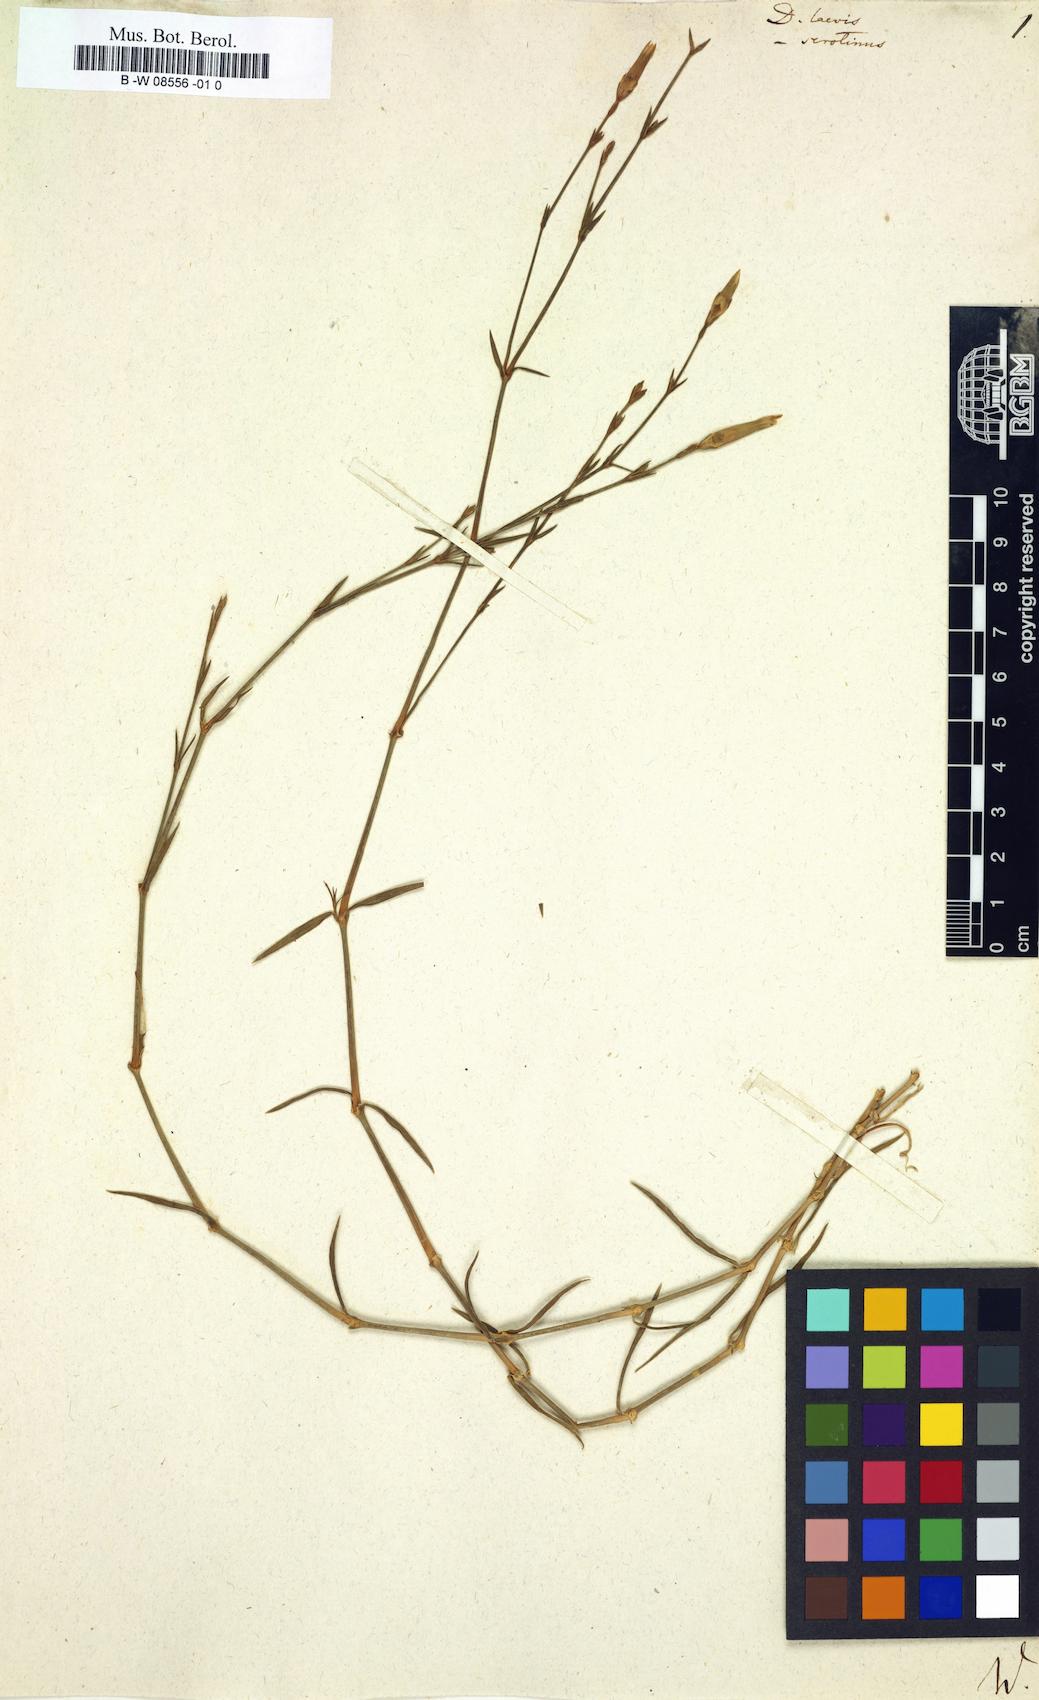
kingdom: Plantae
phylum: Tracheophyta
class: Magnoliopsida
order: Caryophyllales
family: Caryophyllaceae
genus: Dianthus
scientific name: Dianthus
